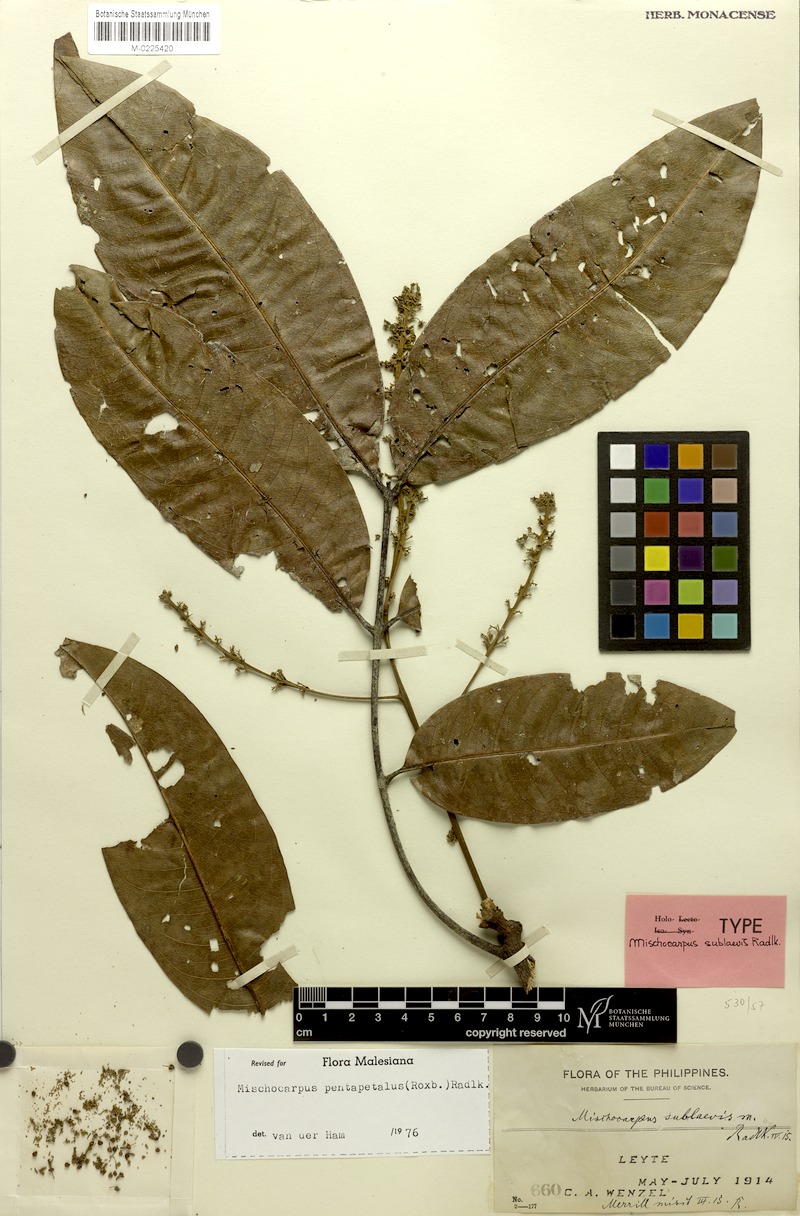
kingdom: Plantae
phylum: Tracheophyta
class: Magnoliopsida
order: Sapindales
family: Sapindaceae
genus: Mischocarpus
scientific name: Mischocarpus pentapetalus
